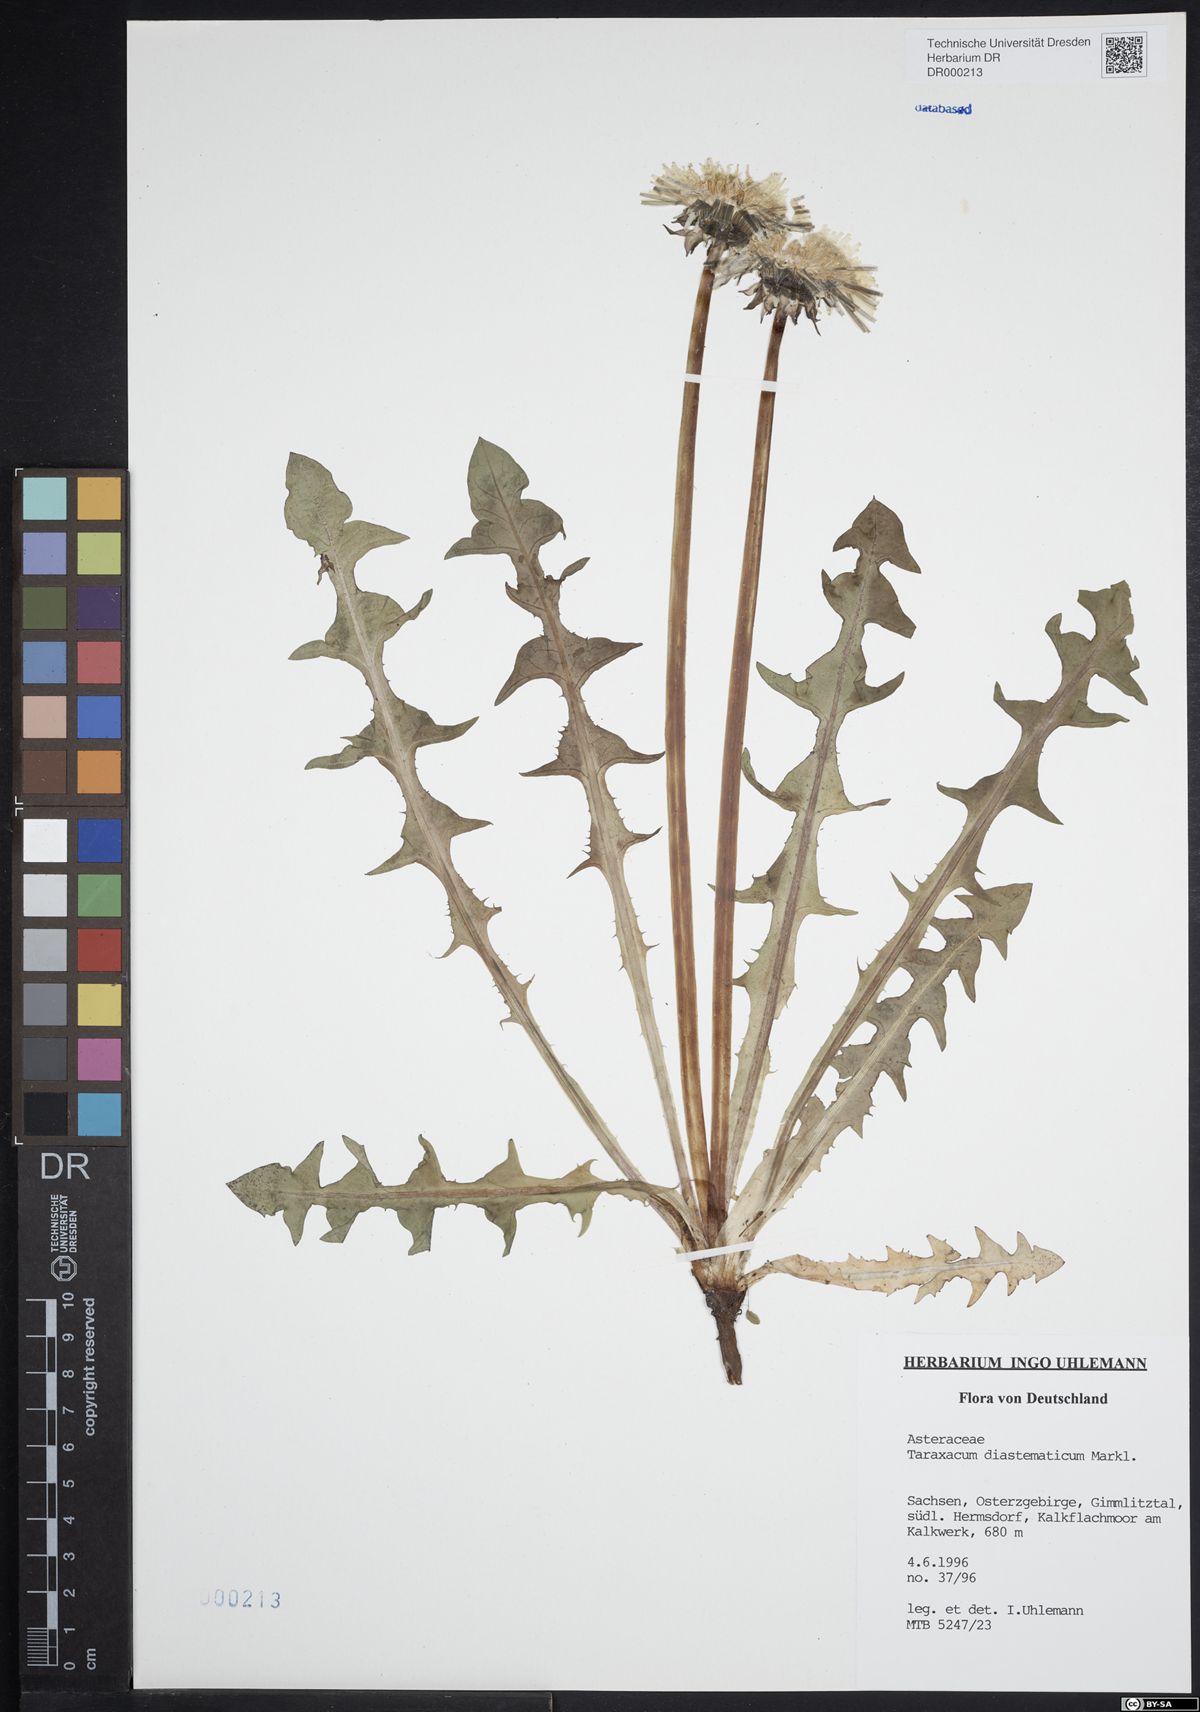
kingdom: Plantae
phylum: Tracheophyta
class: Magnoliopsida
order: Asterales
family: Asteraceae
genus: Taraxacum
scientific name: Taraxacum diastematicum
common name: Bulbous-lobed dandelion
